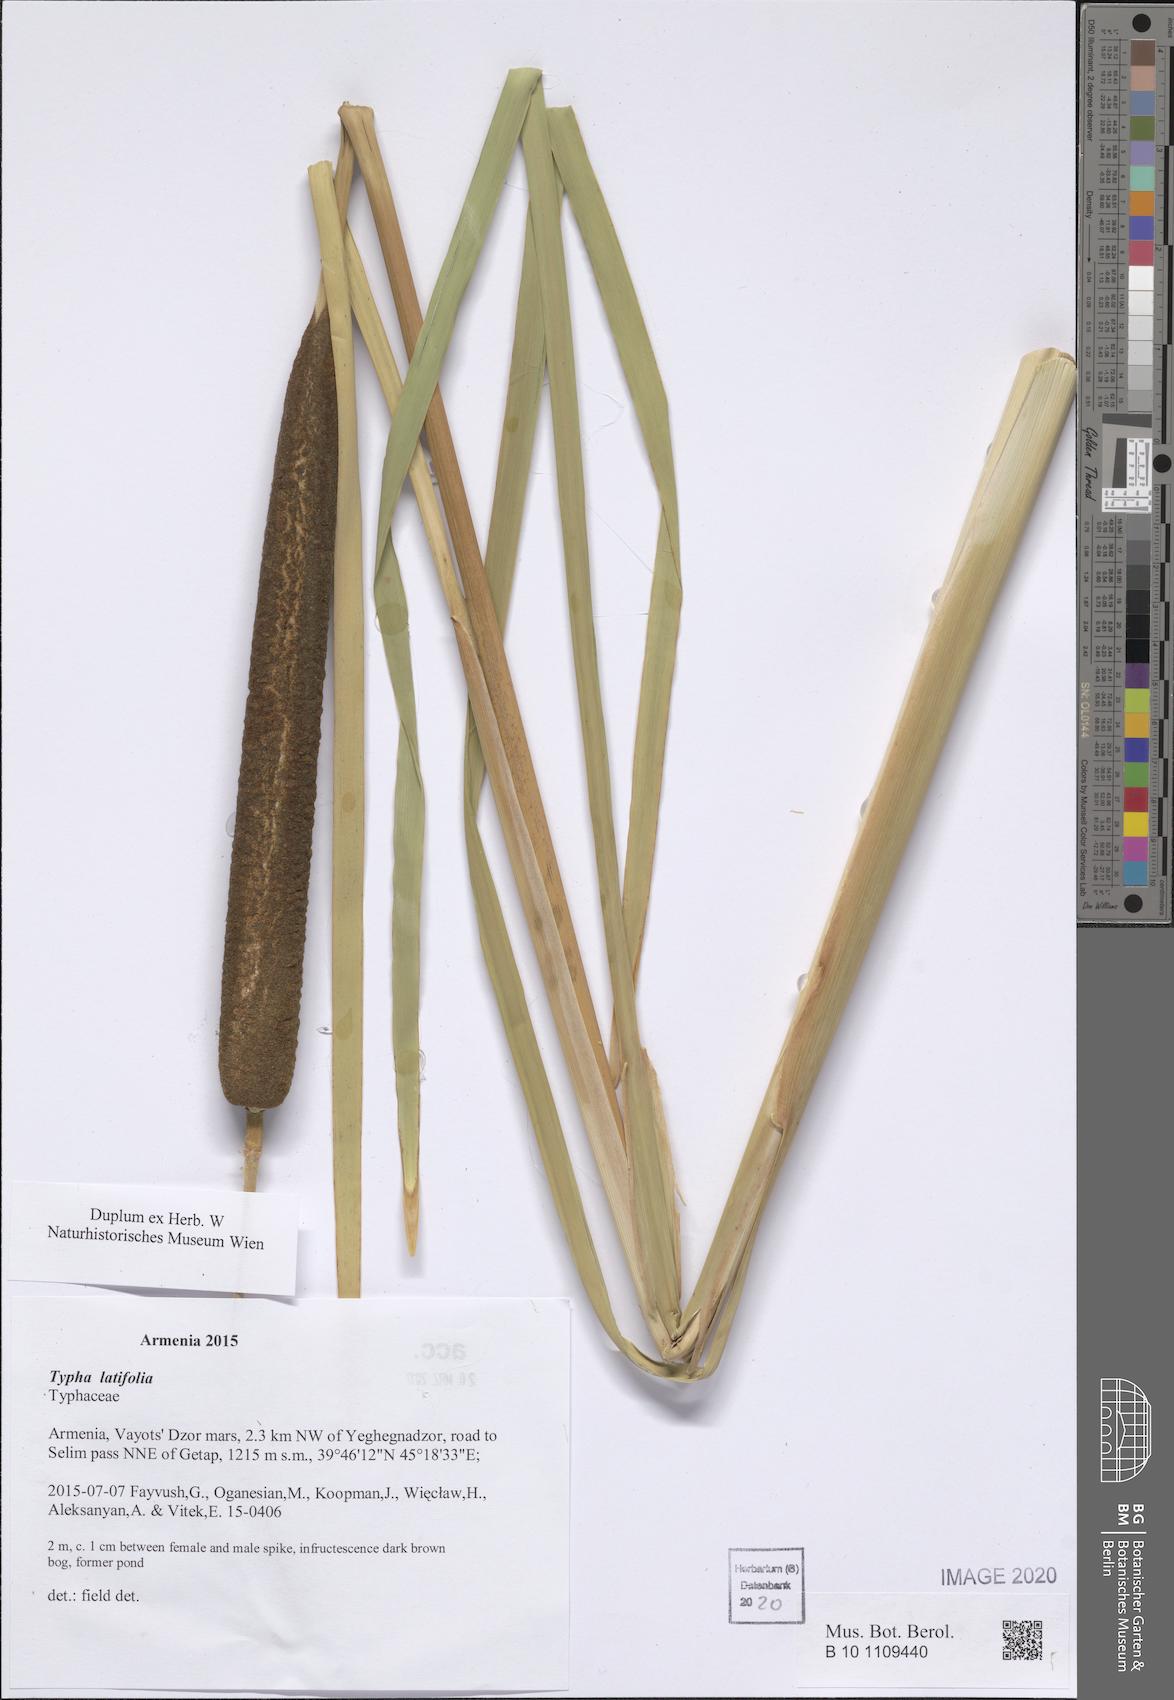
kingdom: Plantae
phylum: Tracheophyta
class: Liliopsida
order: Poales
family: Typhaceae
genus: Typha
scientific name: Typha latifolia
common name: Broadleaf cattail
